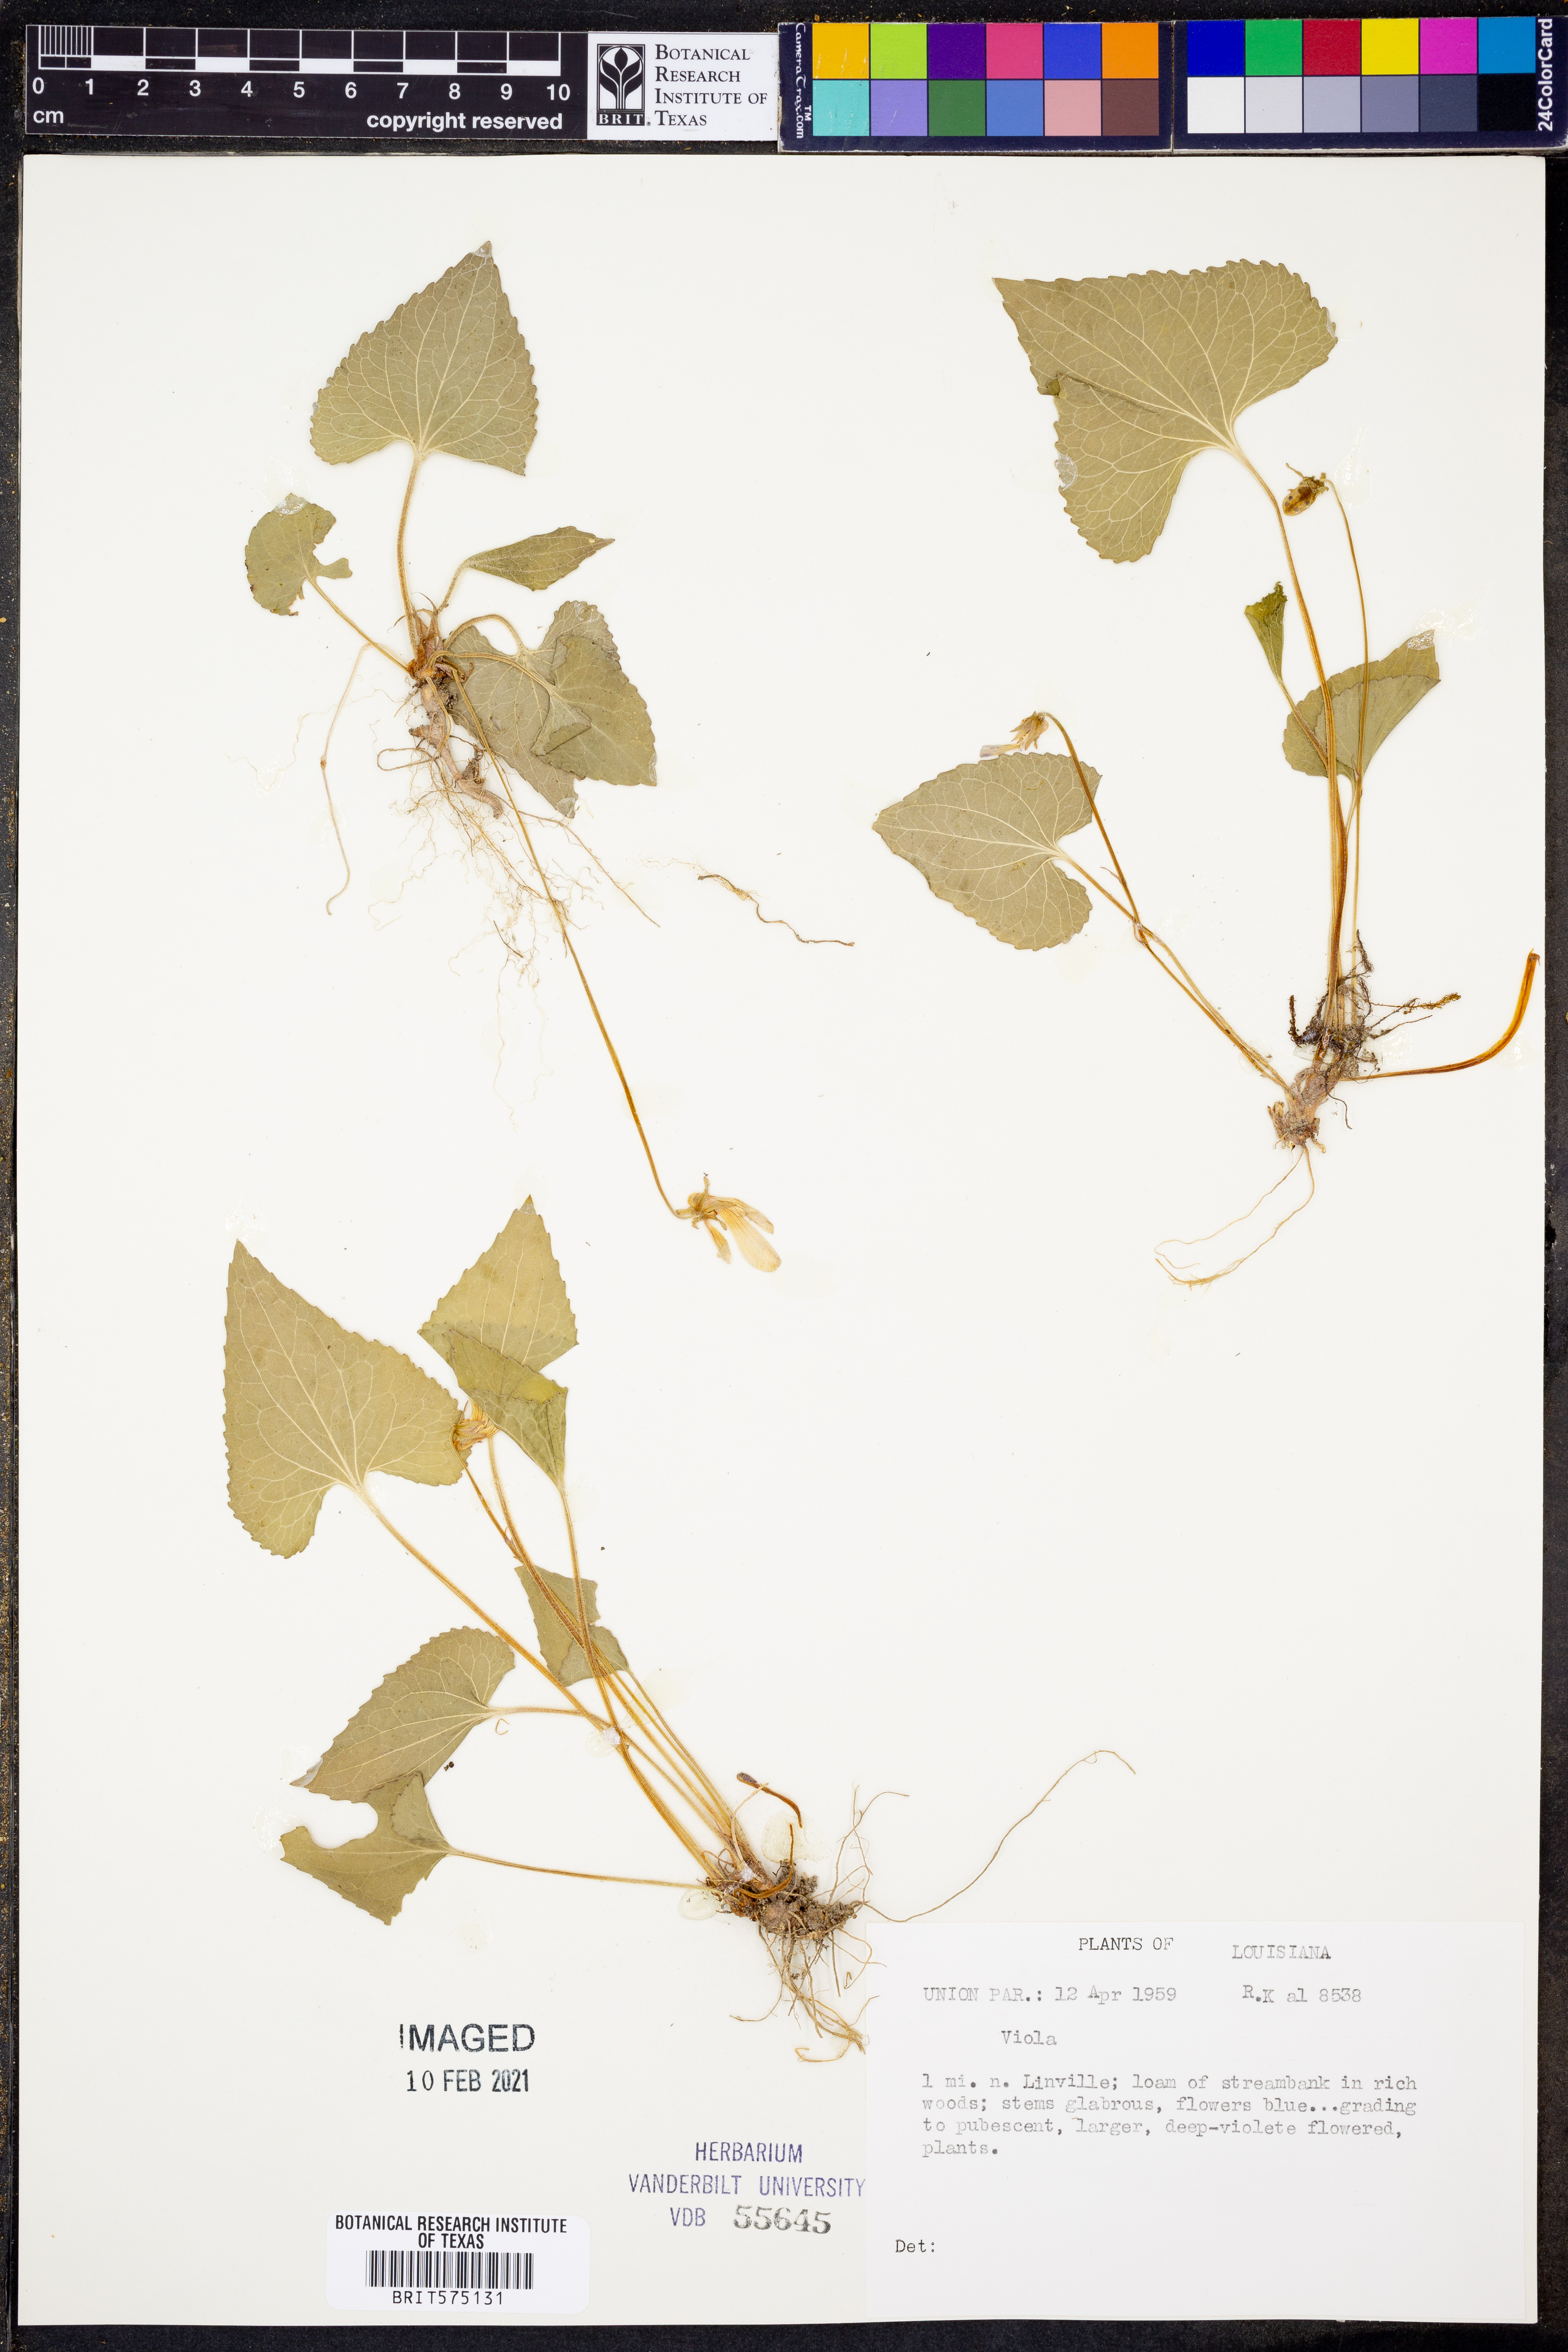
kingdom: Plantae
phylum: Tracheophyta
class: Magnoliopsida
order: Malpighiales
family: Violaceae
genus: Viola
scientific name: Viola
